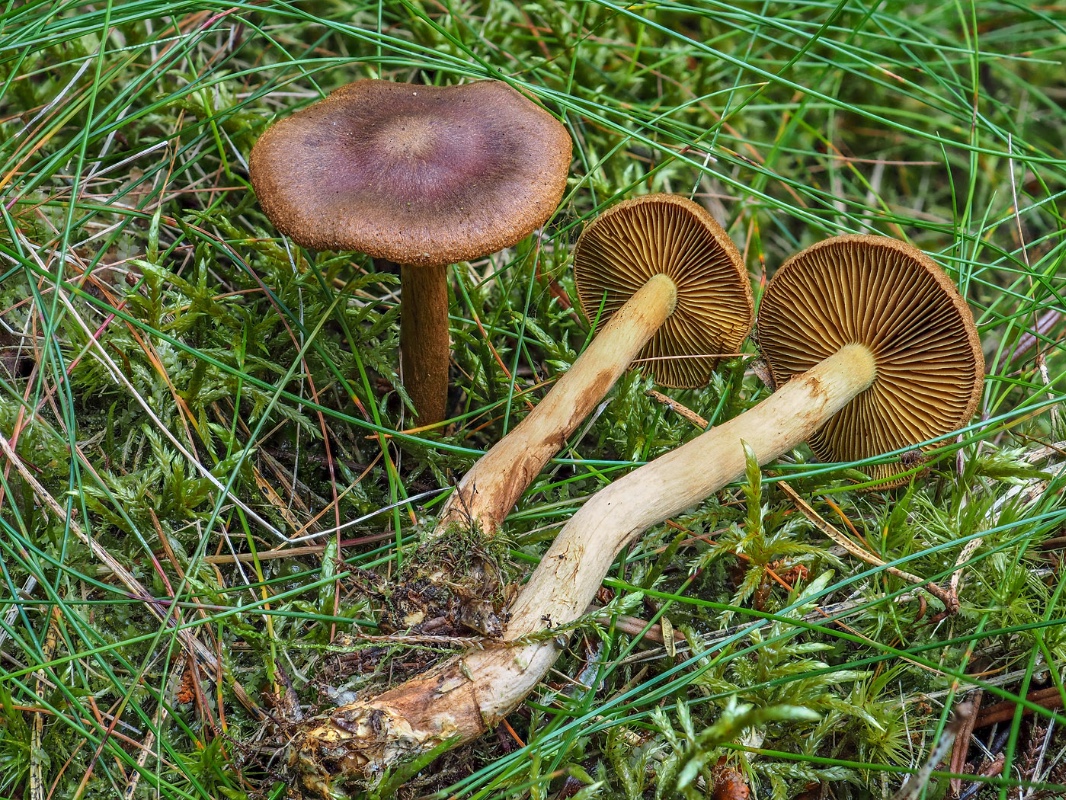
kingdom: Fungi
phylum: Basidiomycota
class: Agaricomycetes
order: Agaricales
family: Cortinariaceae
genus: Cortinarius
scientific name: Cortinarius
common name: gulbladet slørhat
